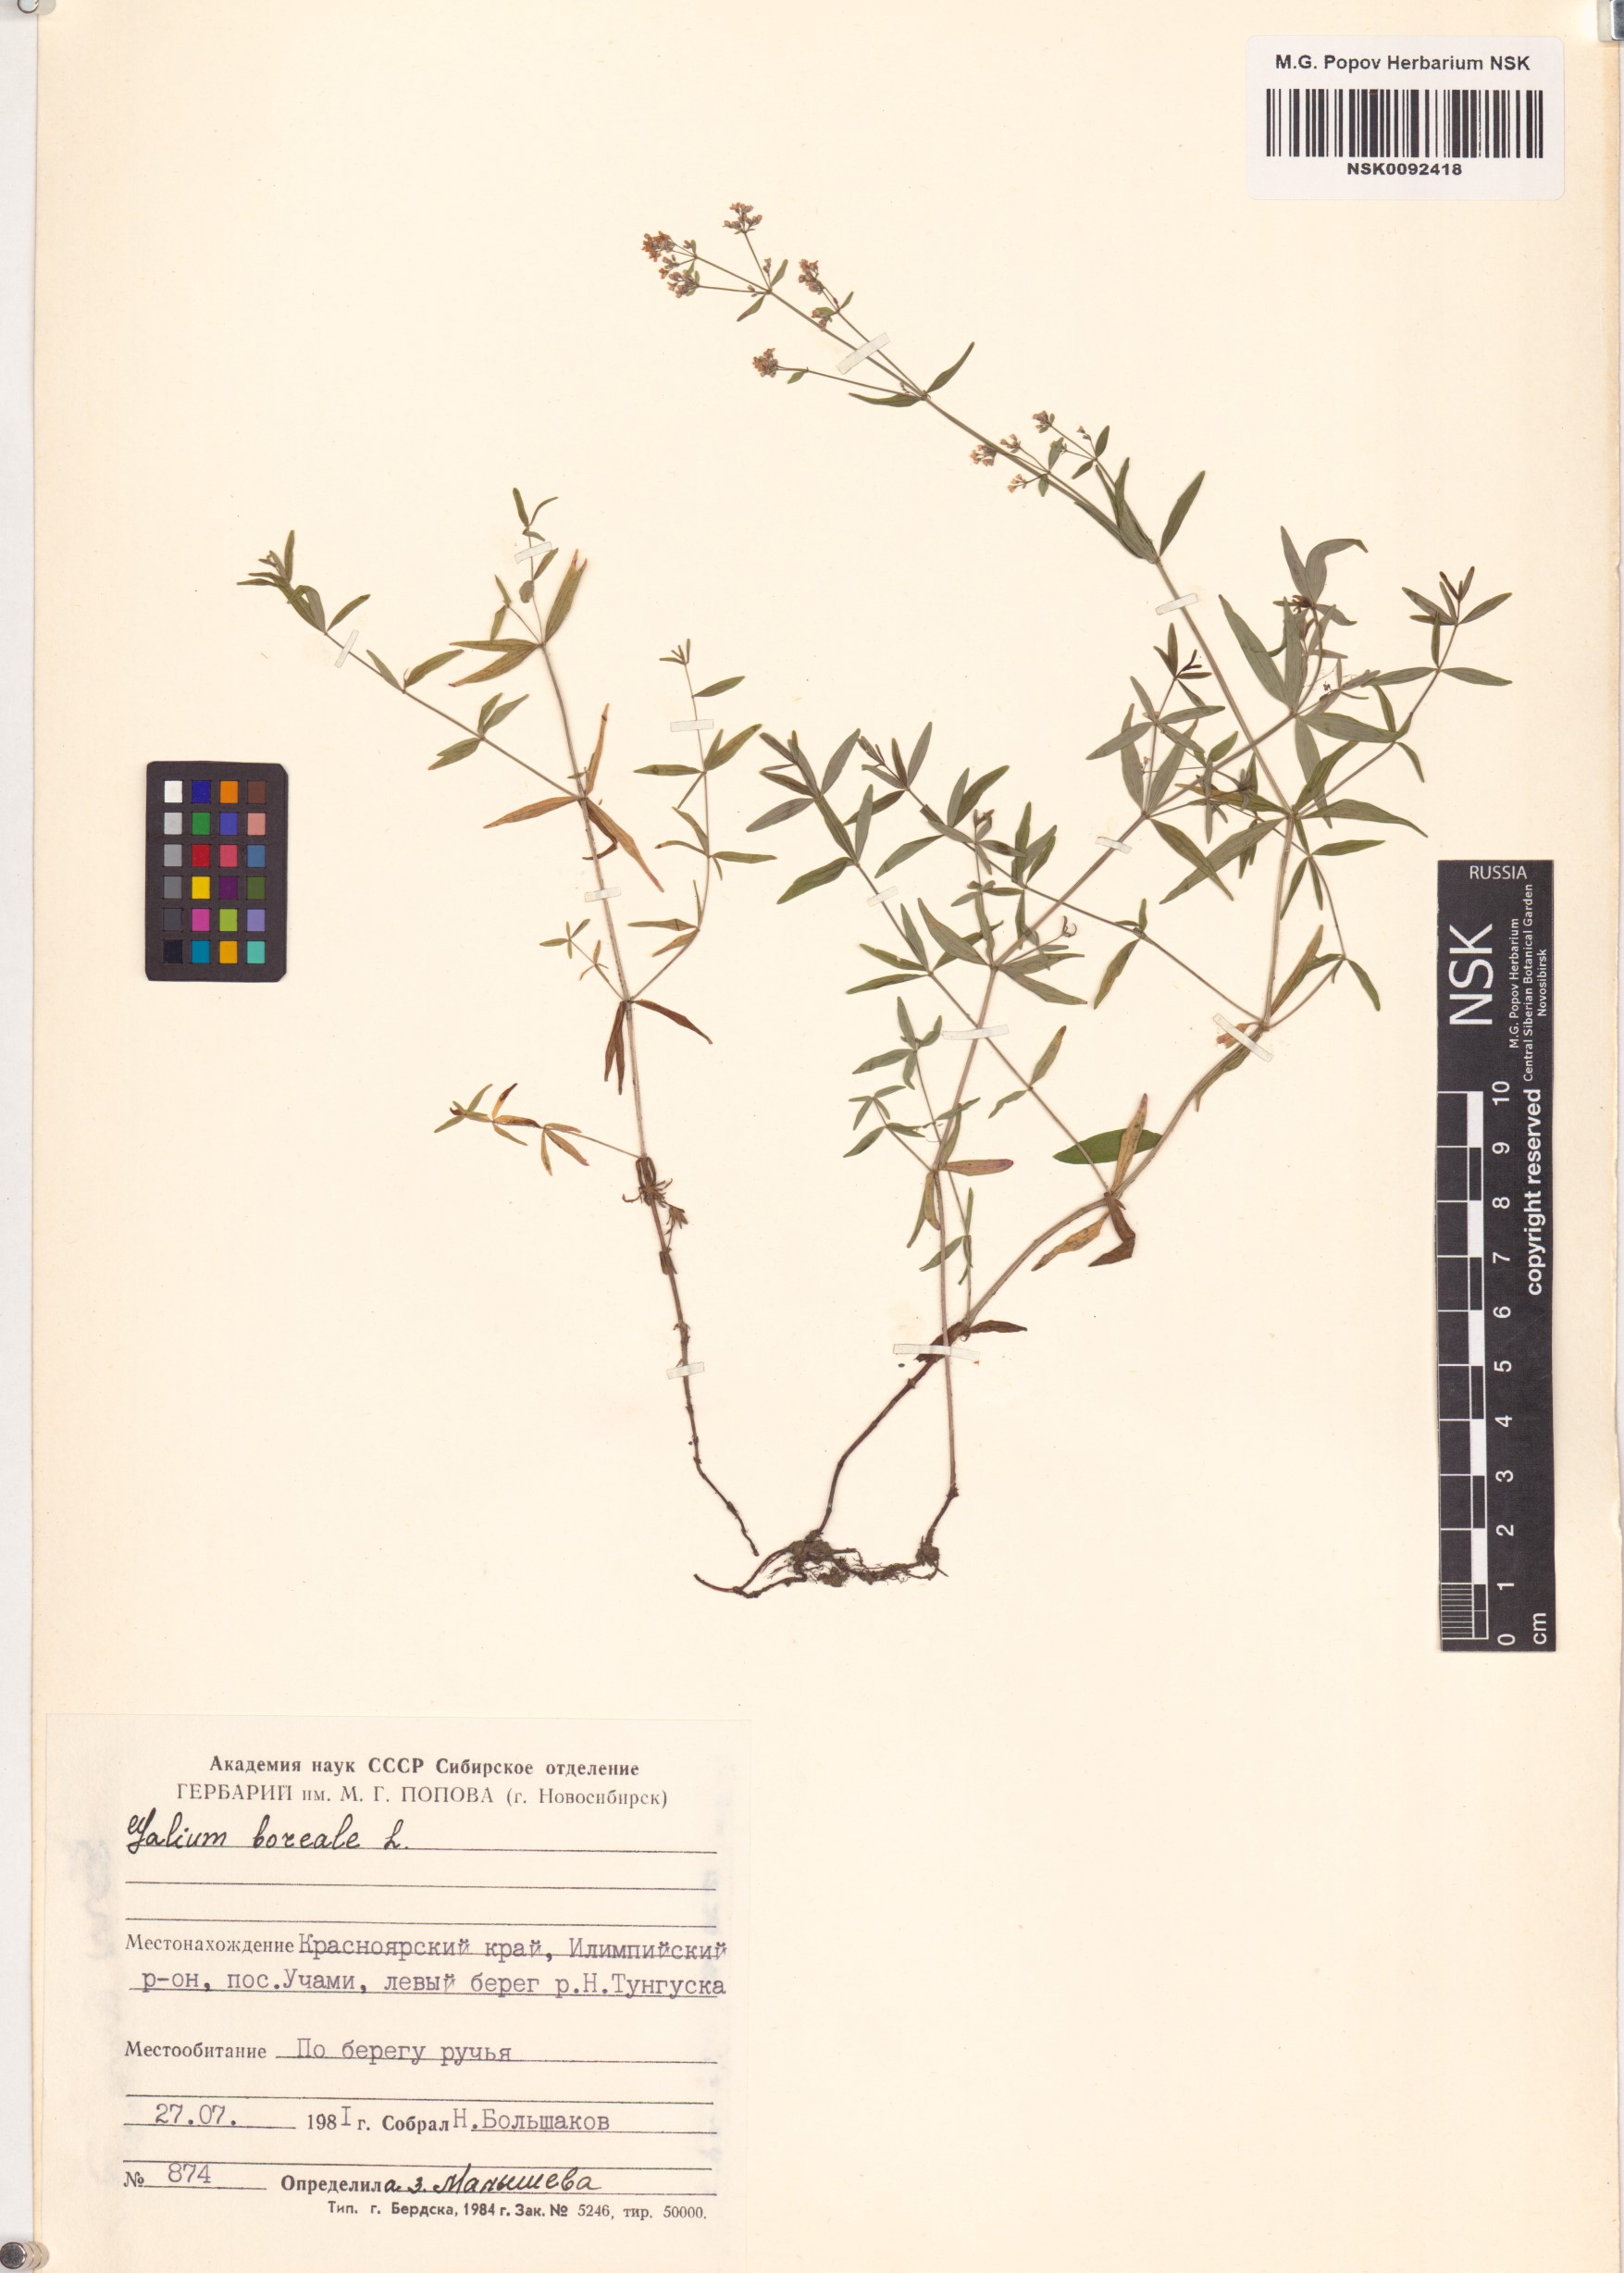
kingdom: Plantae
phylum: Tracheophyta
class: Magnoliopsida
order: Gentianales
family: Rubiaceae
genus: Galium
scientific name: Galium boreale
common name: Northern bedstraw
